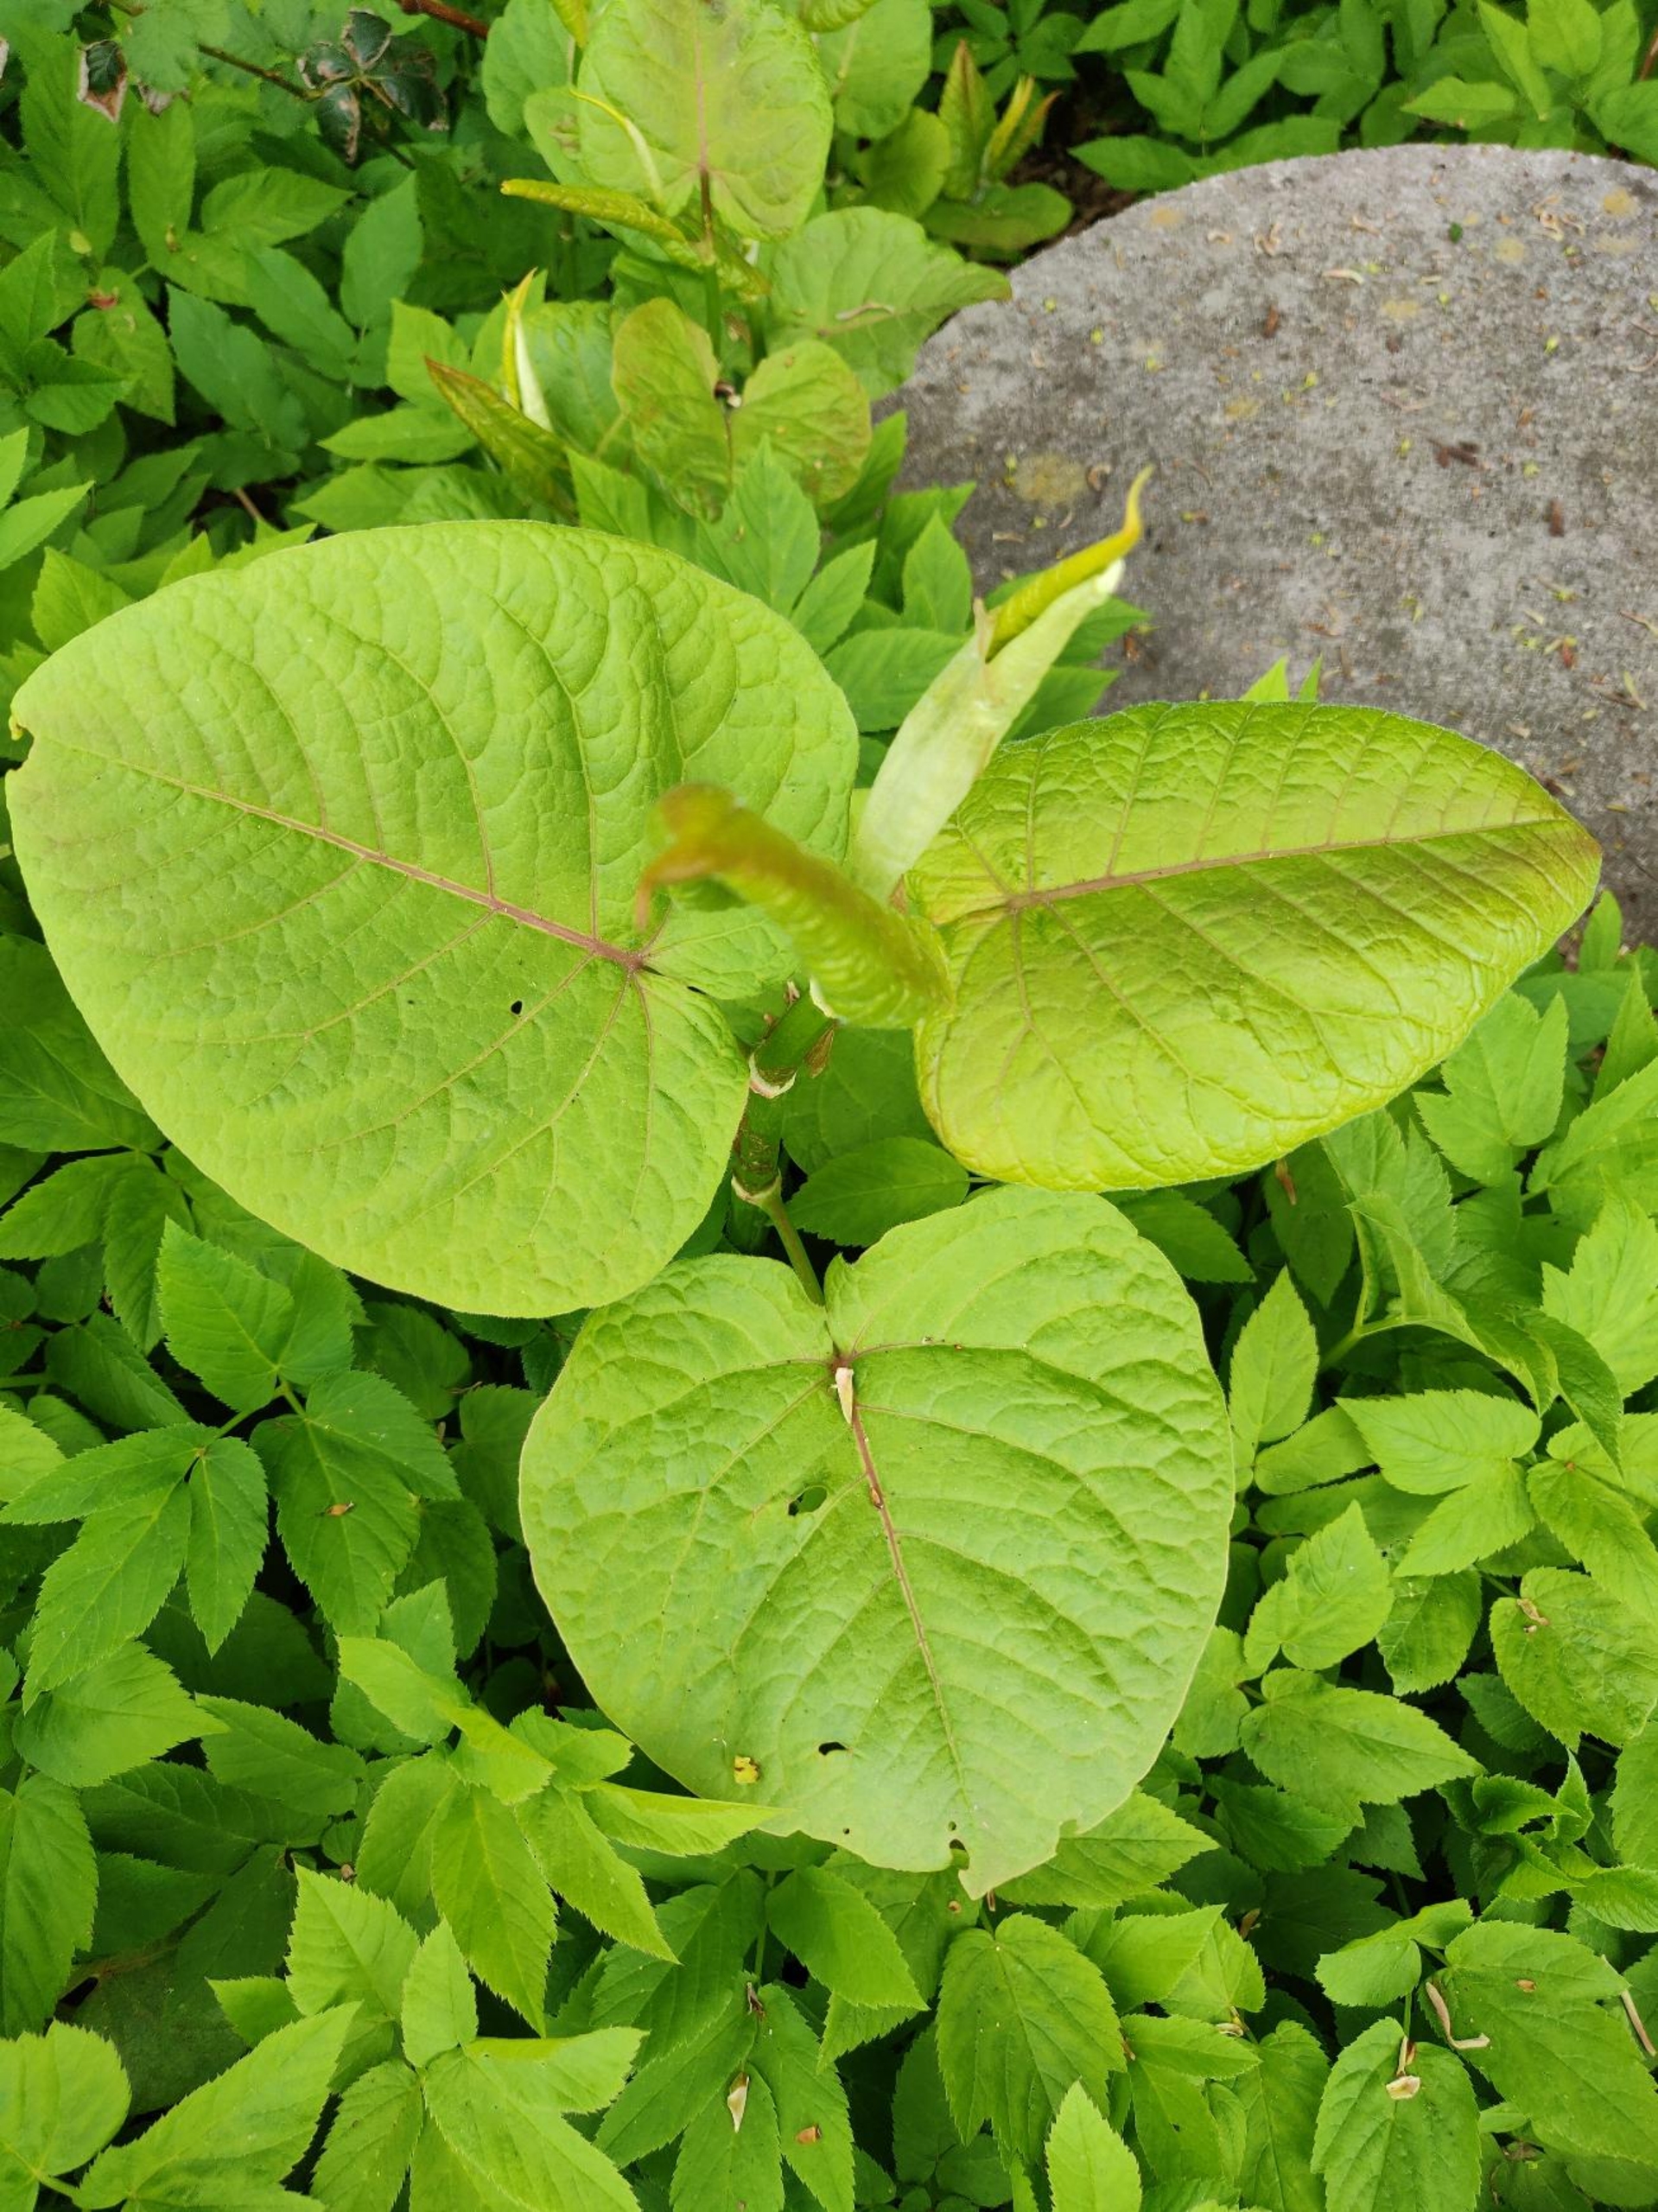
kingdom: Plantae
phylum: Tracheophyta
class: Magnoliopsida
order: Caryophyllales
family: Polygonaceae
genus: Reynoutria
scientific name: Reynoutria sachalinensis
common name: Kæmpe-pileurt
